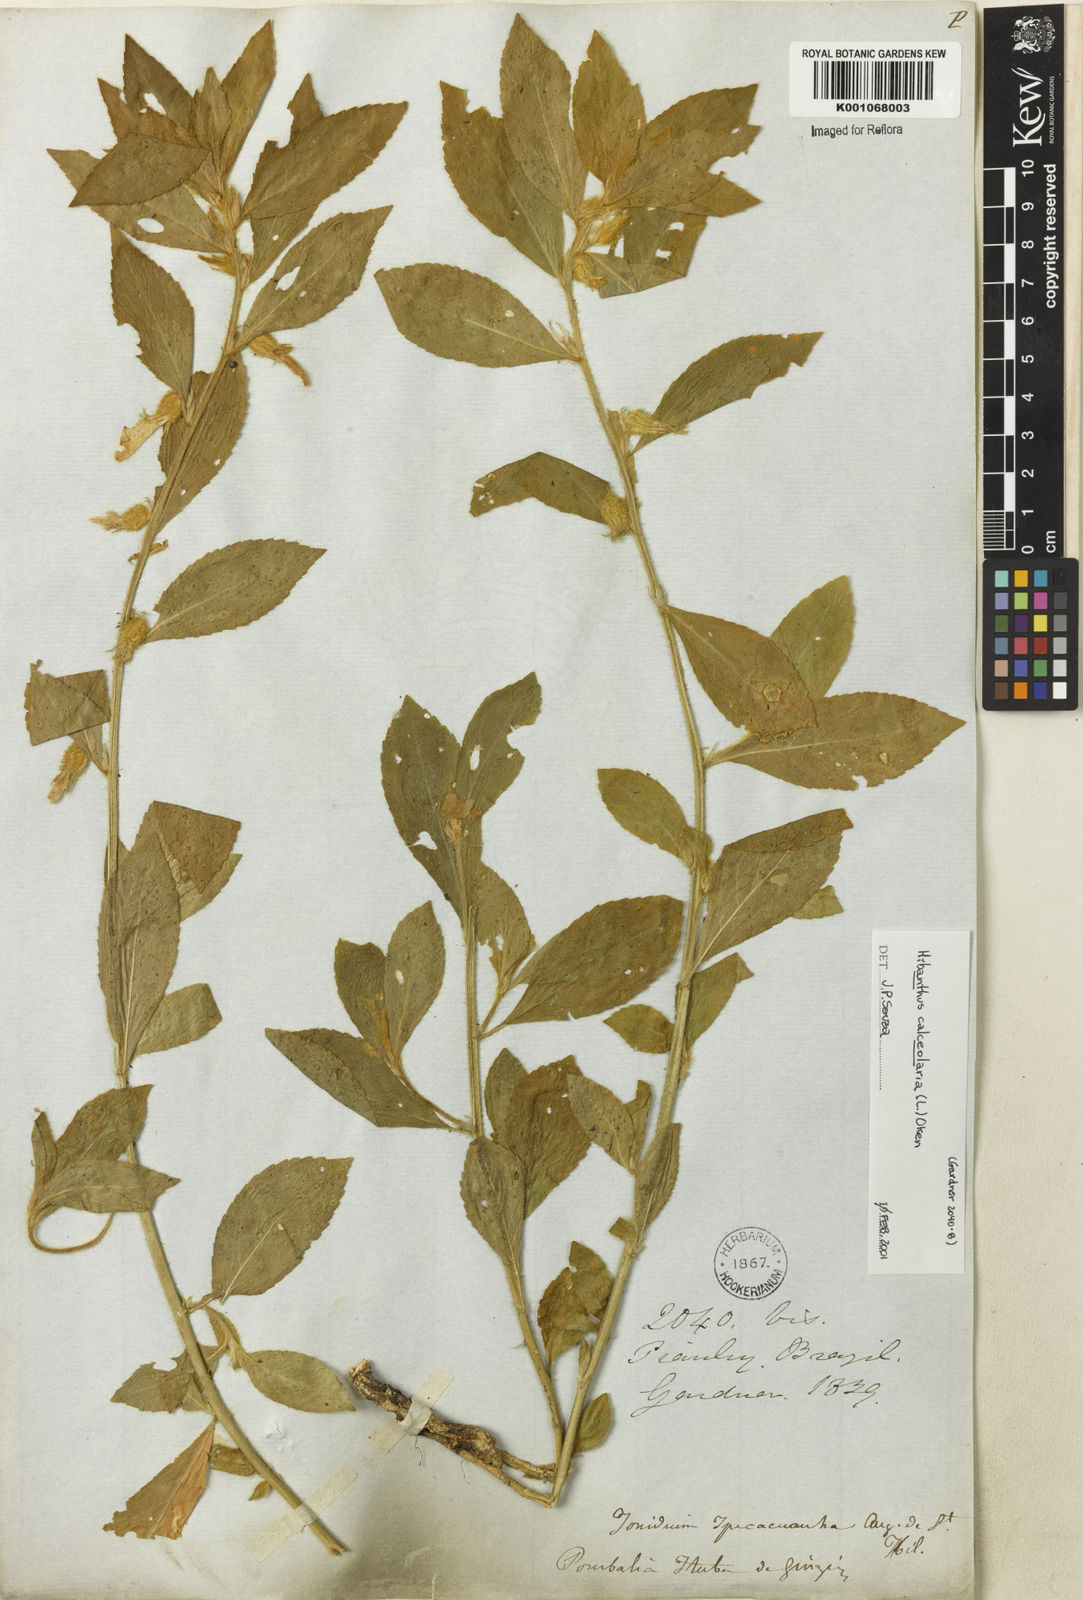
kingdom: Plantae
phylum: Tracheophyta
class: Magnoliopsida
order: Malpighiales
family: Violaceae
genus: Hybanthus
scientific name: Hybanthus
